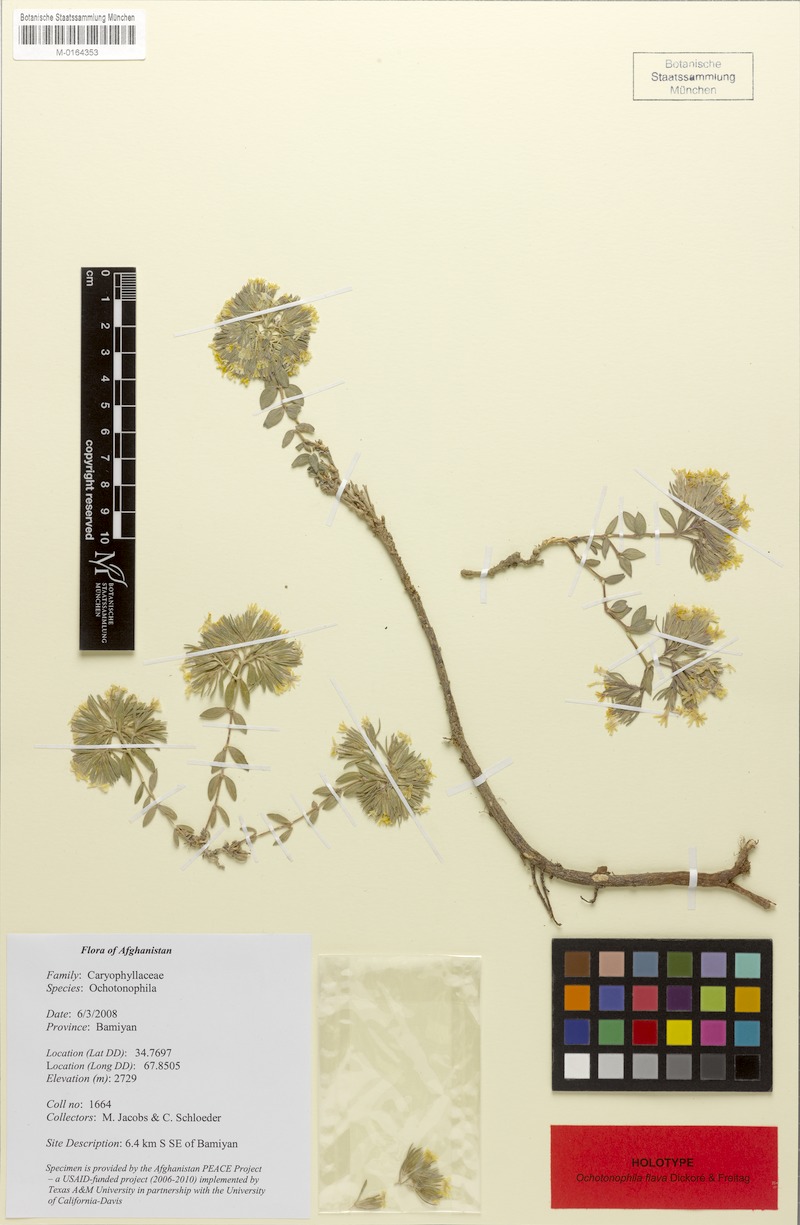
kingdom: Plantae
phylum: Tracheophyta
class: Magnoliopsida
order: Caryophyllales
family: Caryophyllaceae
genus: Acanthophyllum
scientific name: Acanthophyllum flavum
